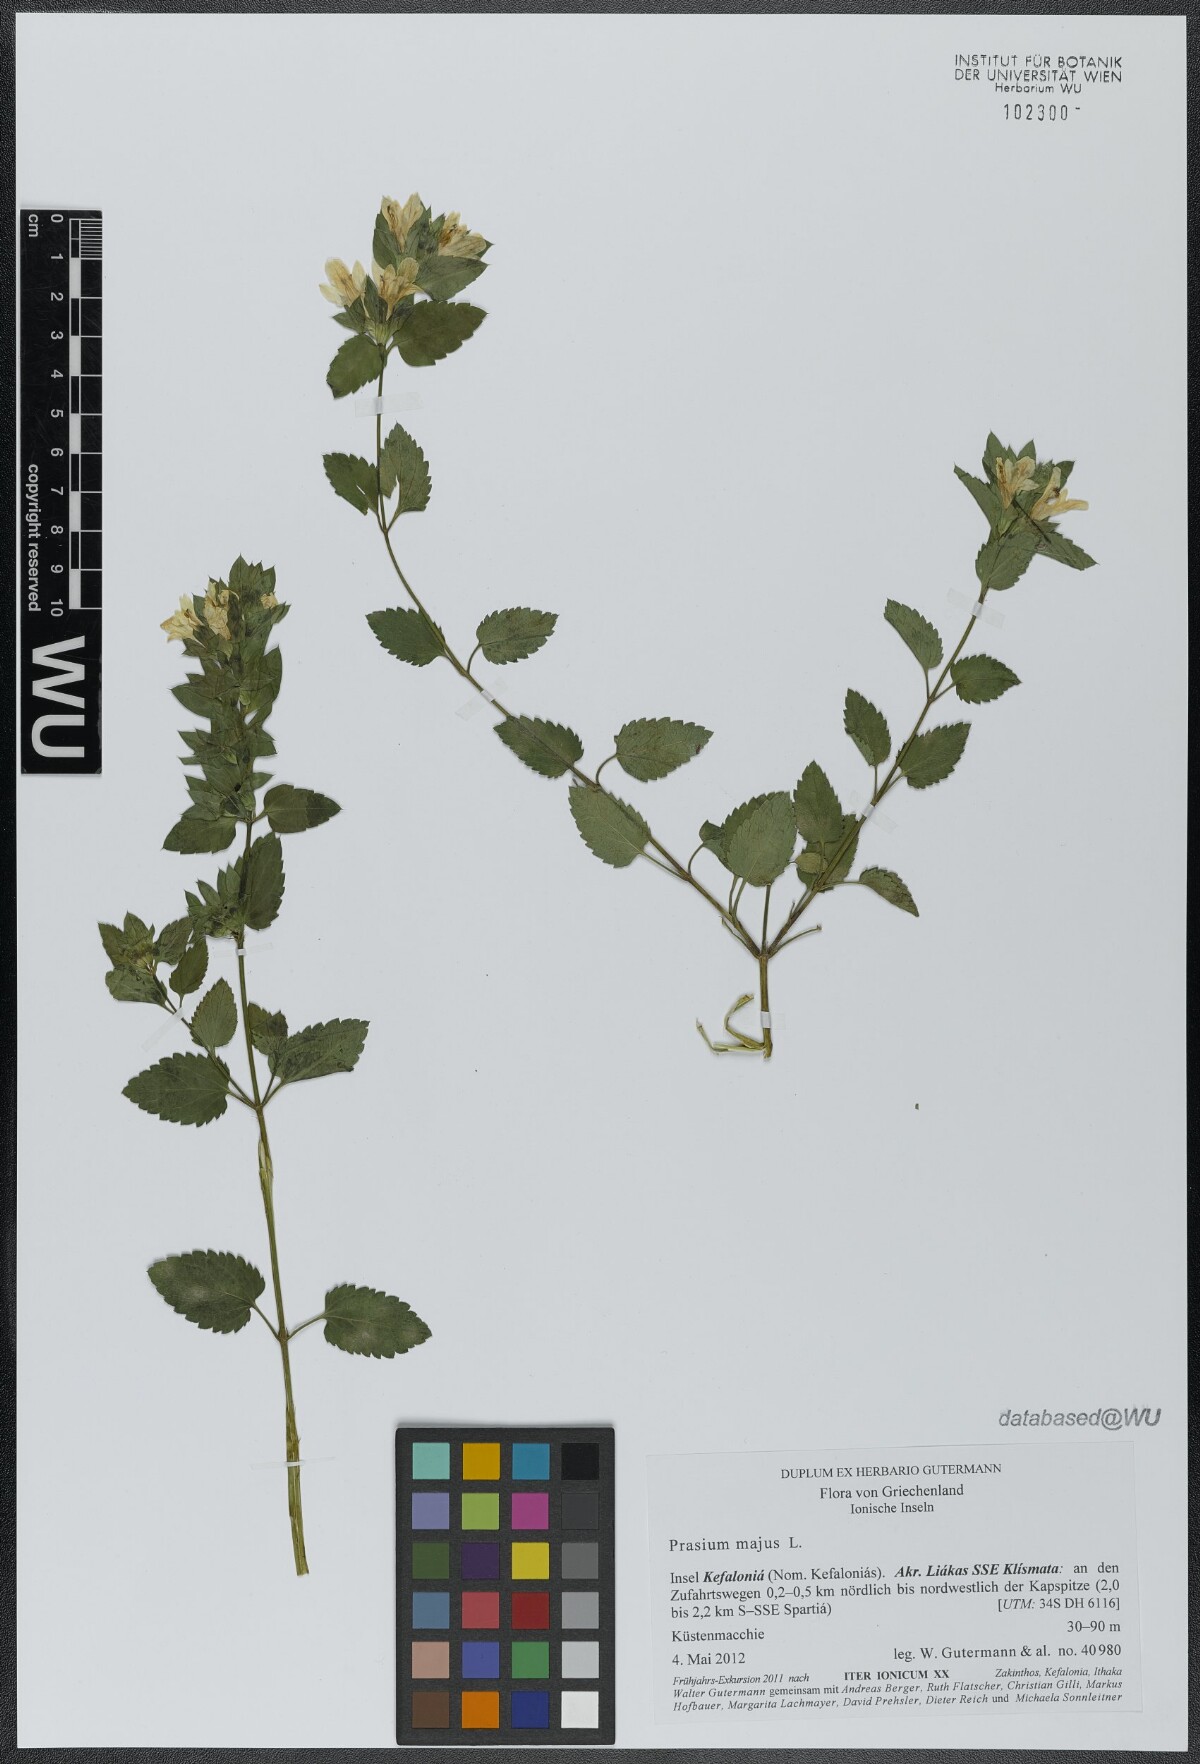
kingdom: Plantae
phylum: Tracheophyta
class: Magnoliopsida
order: Lamiales
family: Lamiaceae
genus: Prasium
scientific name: Prasium majus
